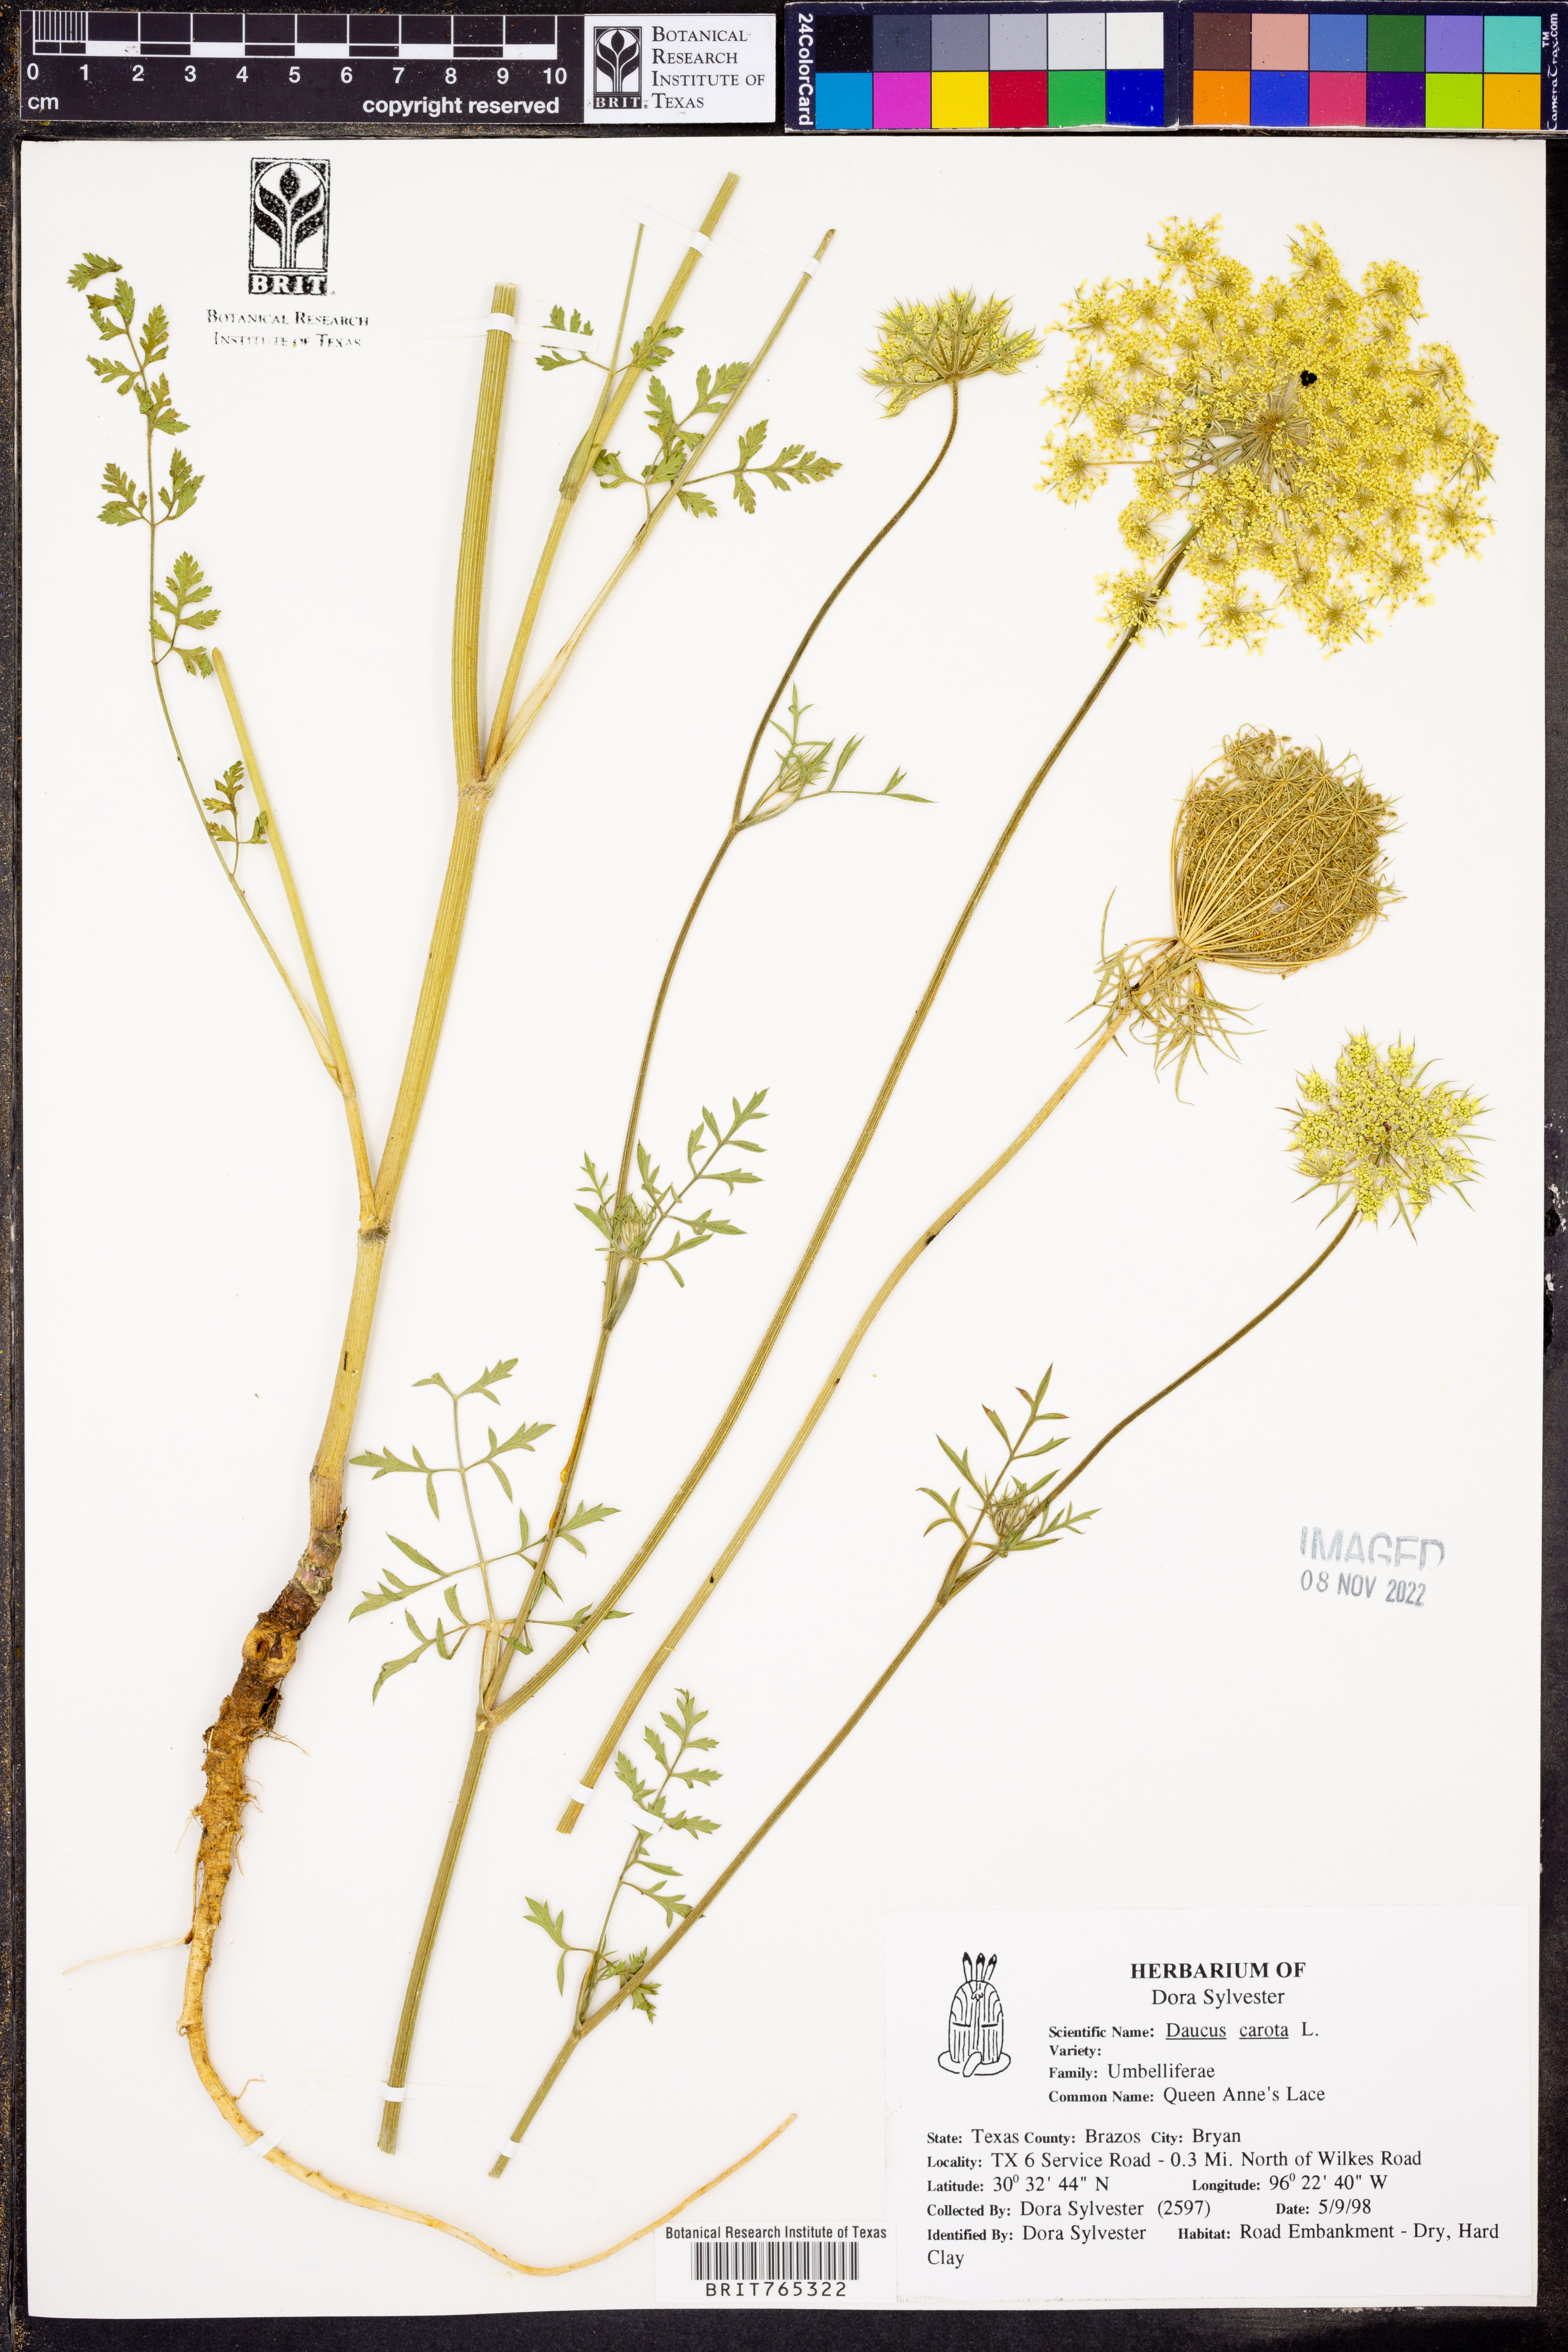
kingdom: Plantae
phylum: Tracheophyta
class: Magnoliopsida
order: Apiales
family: Apiaceae
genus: Daucus
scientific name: Daucus carota
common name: Wild carrot
